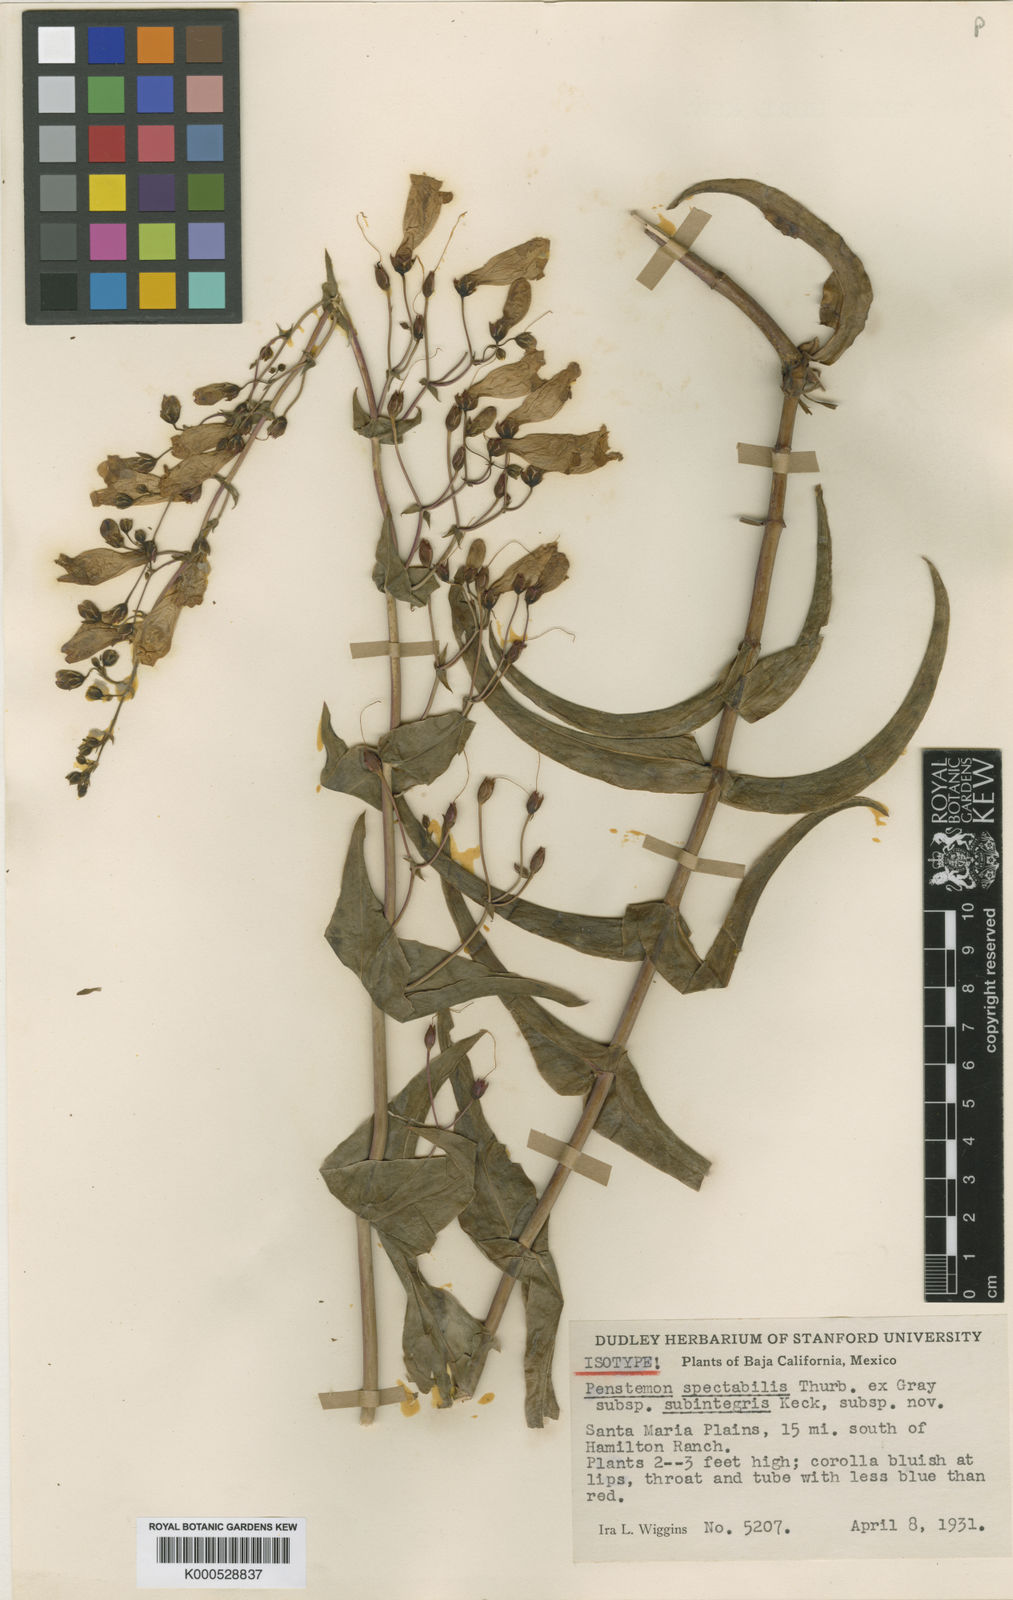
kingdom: Plantae
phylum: Tracheophyta
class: Magnoliopsida
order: Lamiales
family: Plantaginaceae
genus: Penstemon
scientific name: Penstemon spectabilis
